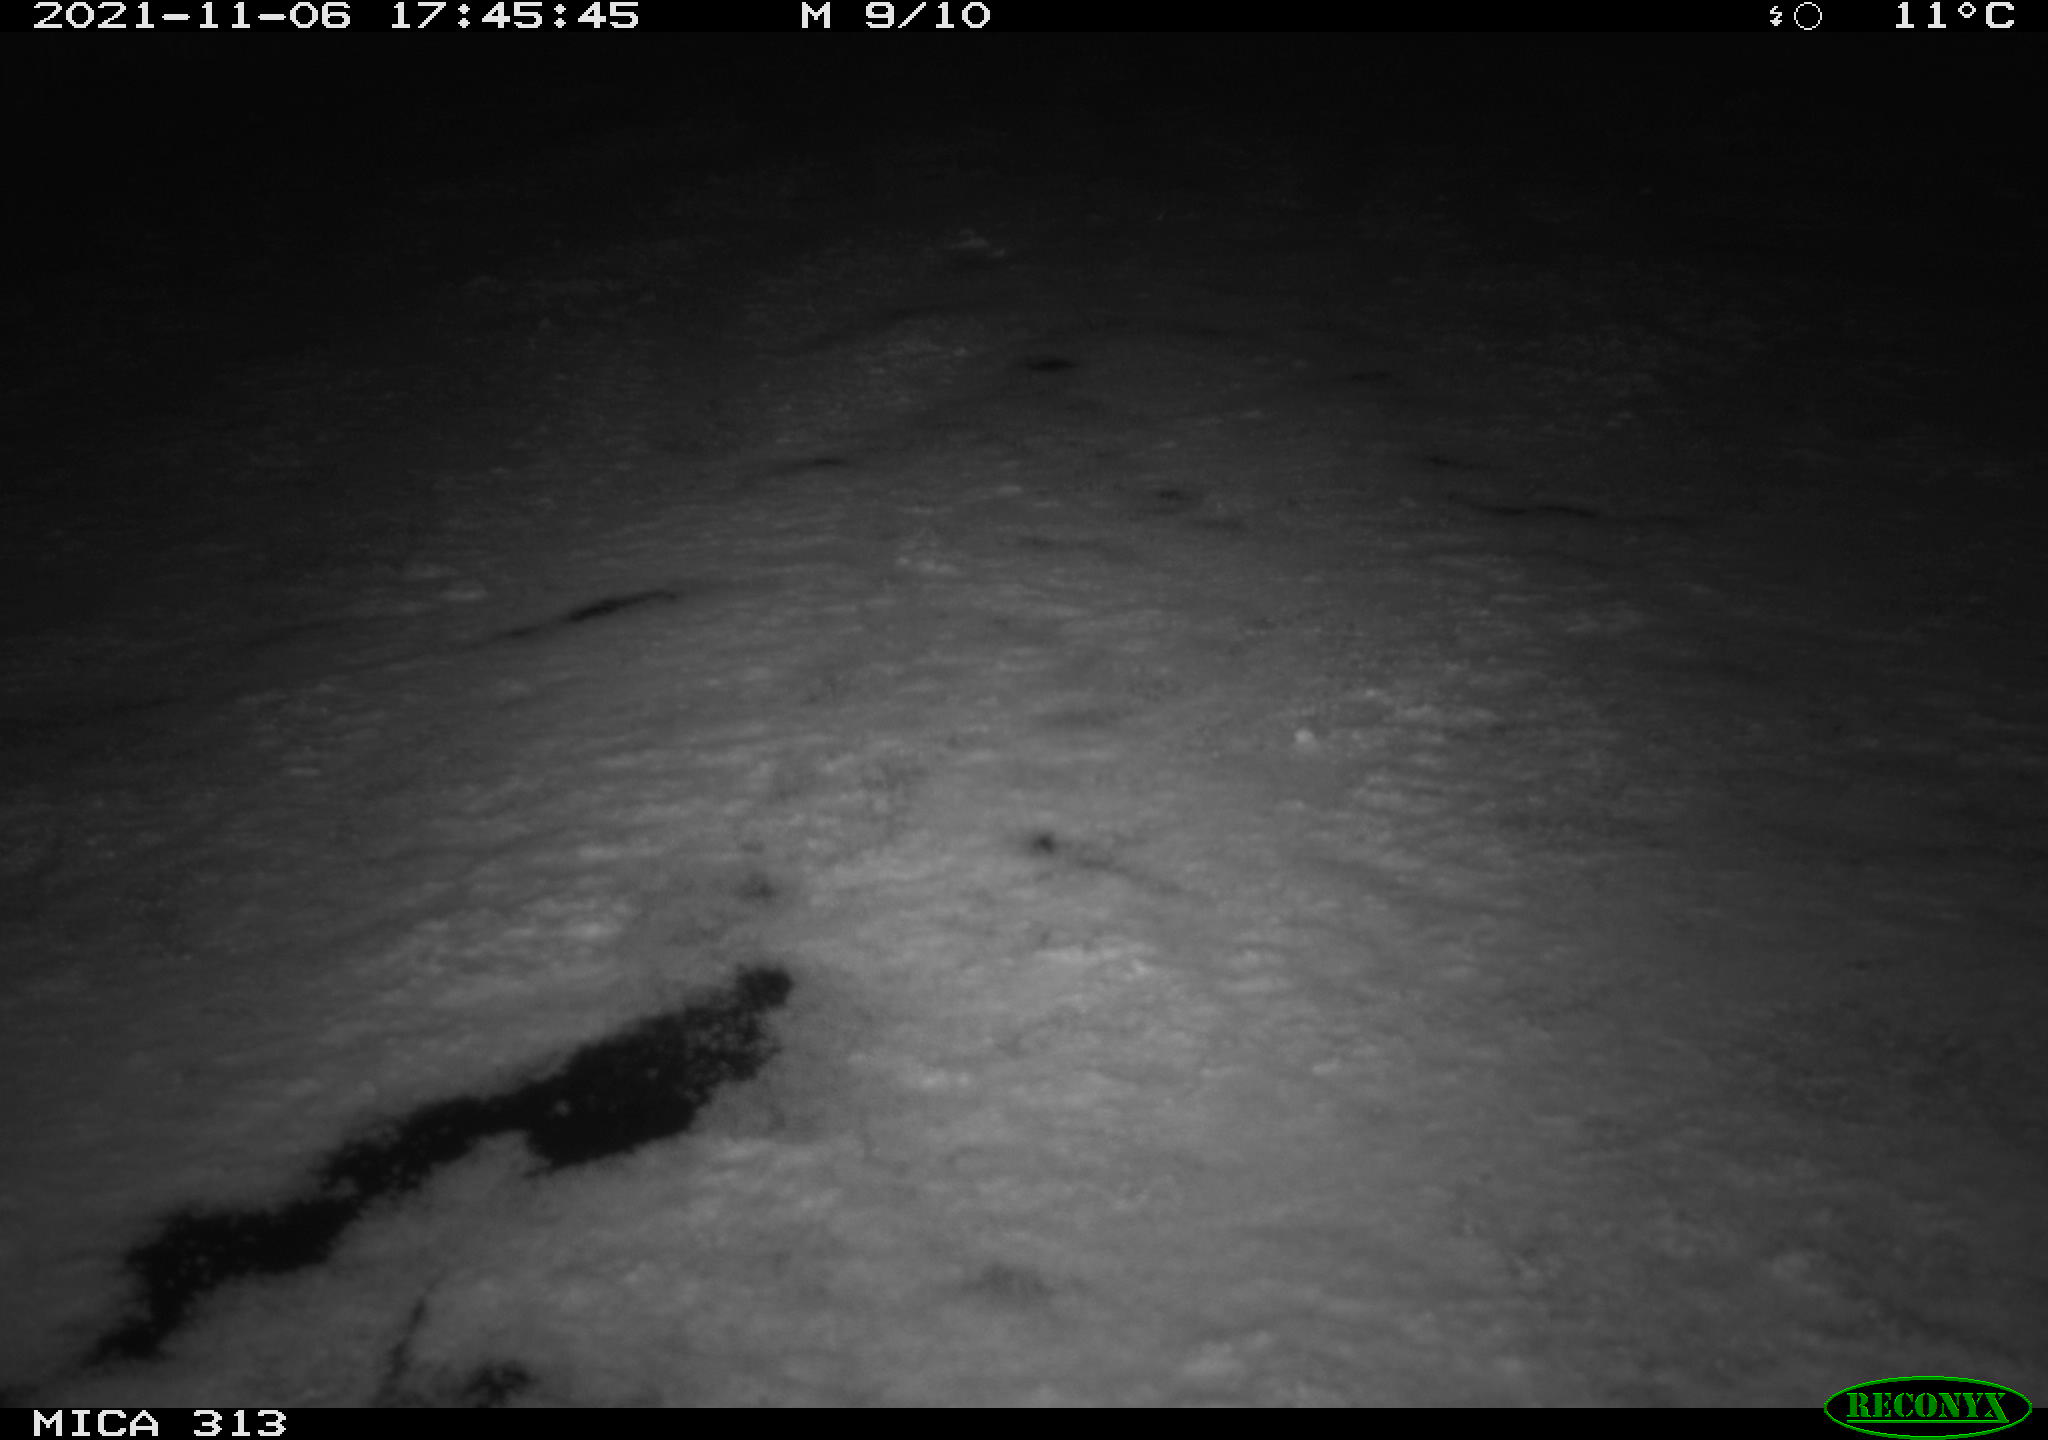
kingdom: Animalia
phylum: Chordata
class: Aves
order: Gruiformes
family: Rallidae
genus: Gallinula
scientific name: Gallinula chloropus
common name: Common moorhen
